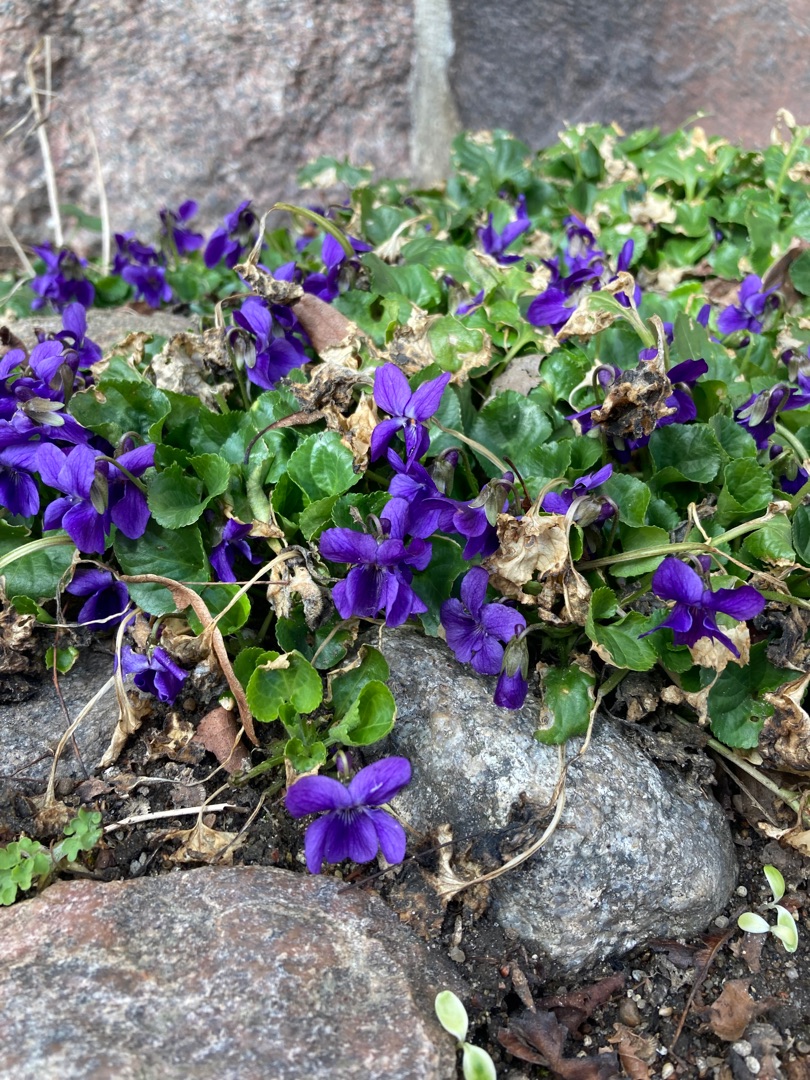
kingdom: Plantae
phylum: Tracheophyta
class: Magnoliopsida
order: Malpighiales
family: Violaceae
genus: Viola
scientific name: Viola odorata
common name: Marts-viol
